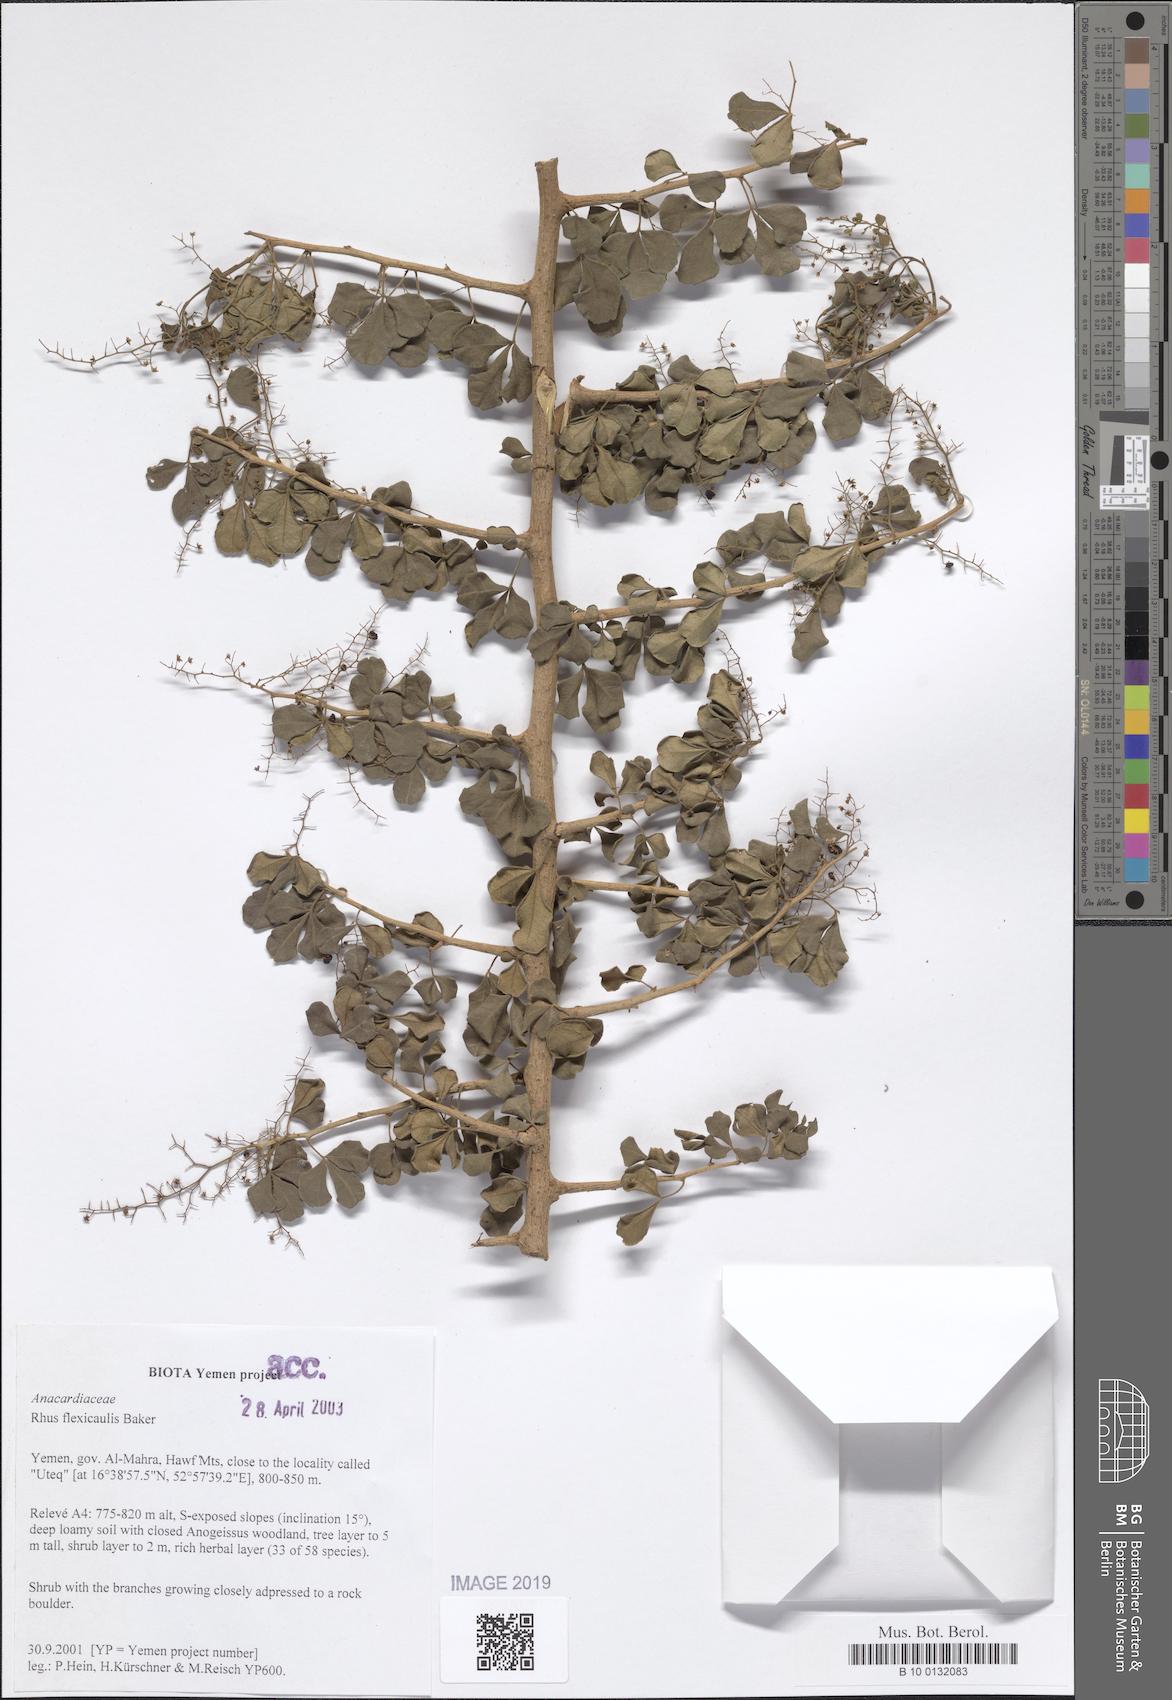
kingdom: Plantae
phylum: Tracheophyta
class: Magnoliopsida
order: Sapindales
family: Anacardiaceae
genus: Searsia
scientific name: Searsia flexicaulis
